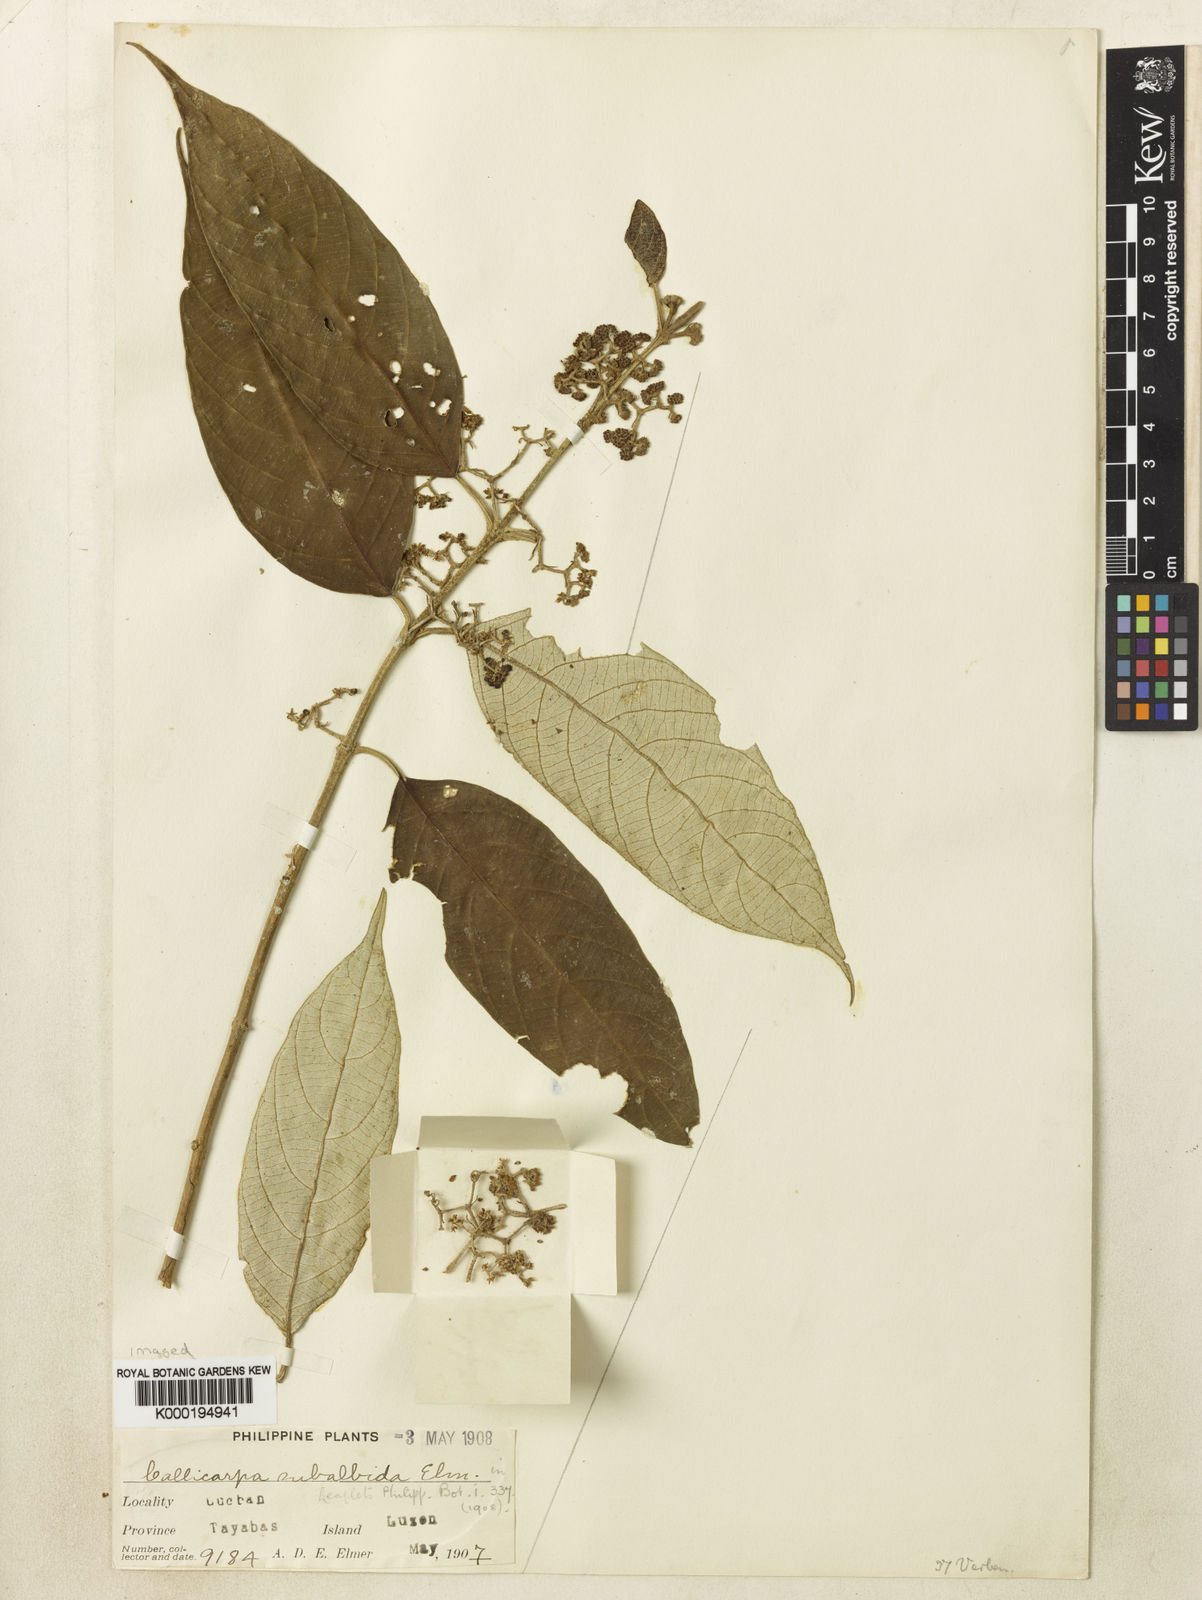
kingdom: Plantae
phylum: Tracheophyta
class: Magnoliopsida
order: Lamiales
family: Lamiaceae
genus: Callicarpa
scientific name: Callicarpa erioclona
